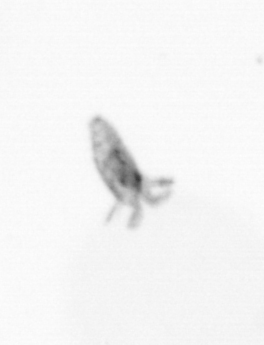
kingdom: Animalia
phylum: Arthropoda
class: Copepoda
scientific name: Copepoda
